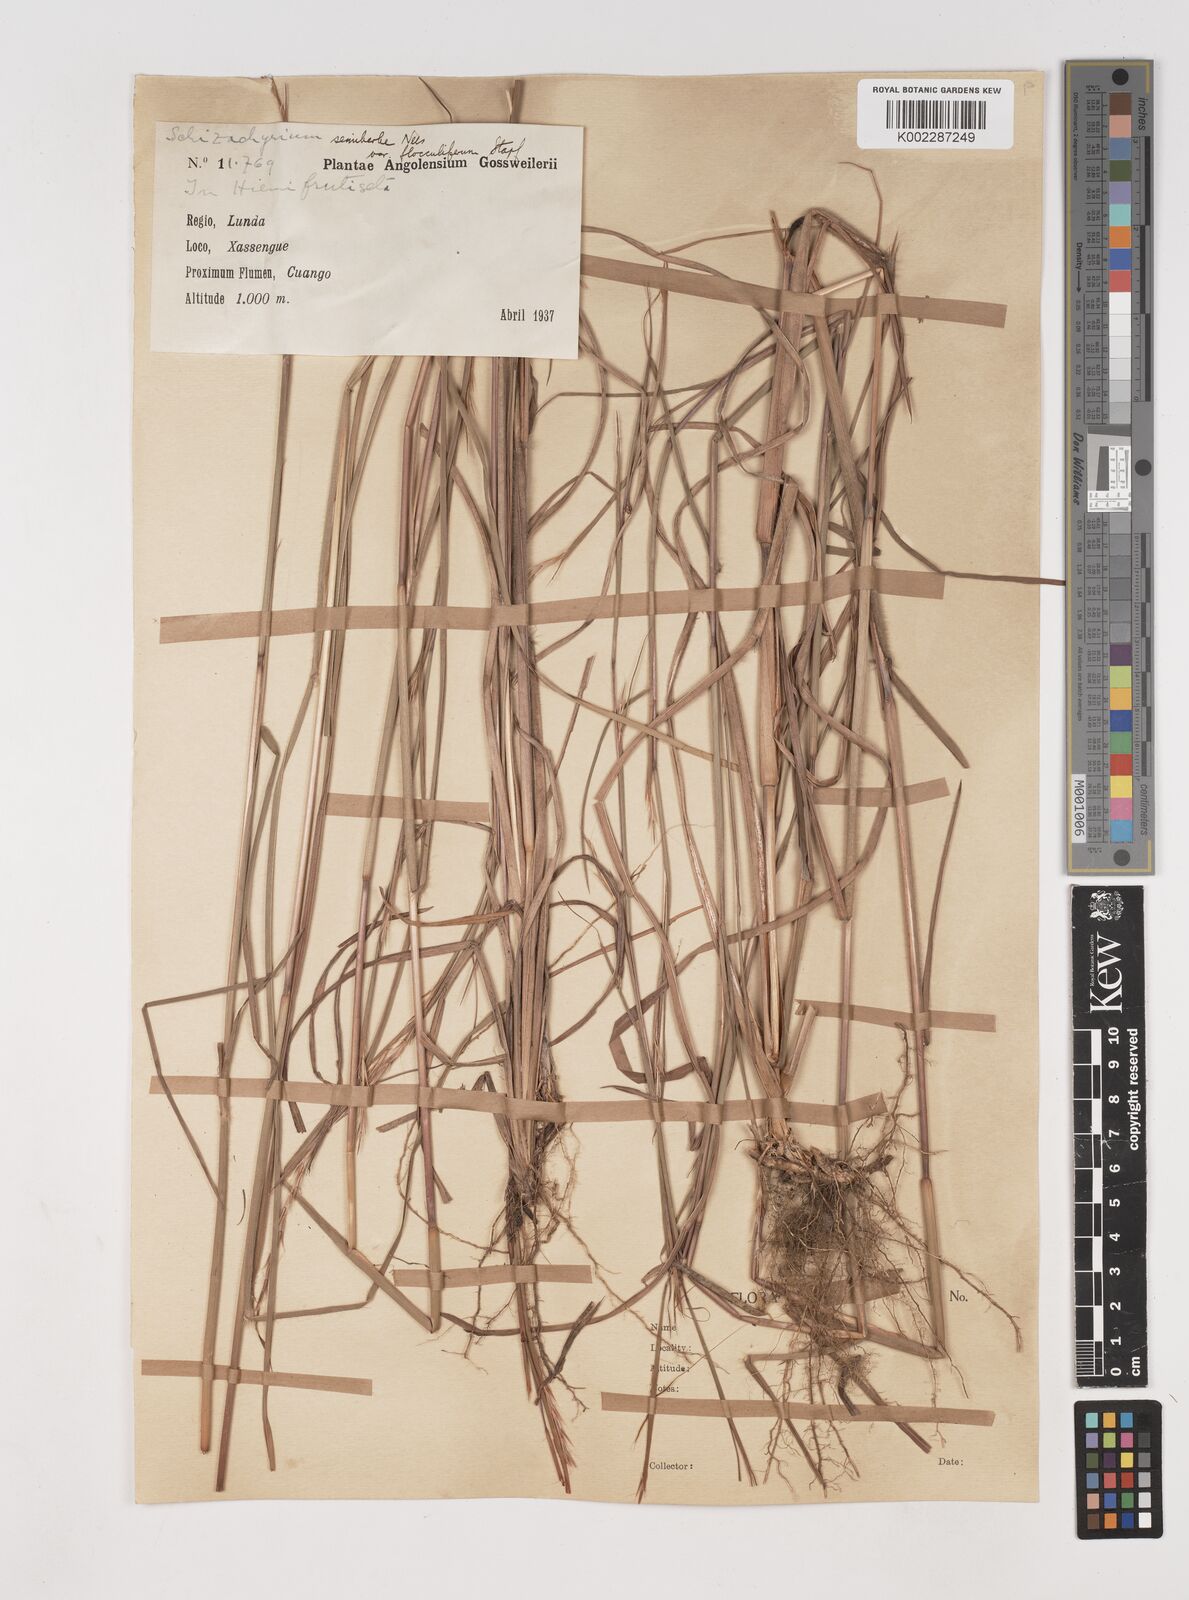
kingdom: Plantae
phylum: Tracheophyta
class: Liliopsida
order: Poales
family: Poaceae
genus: Schizachyrium
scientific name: Schizachyrium sanguineum
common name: Crimson bluestem
